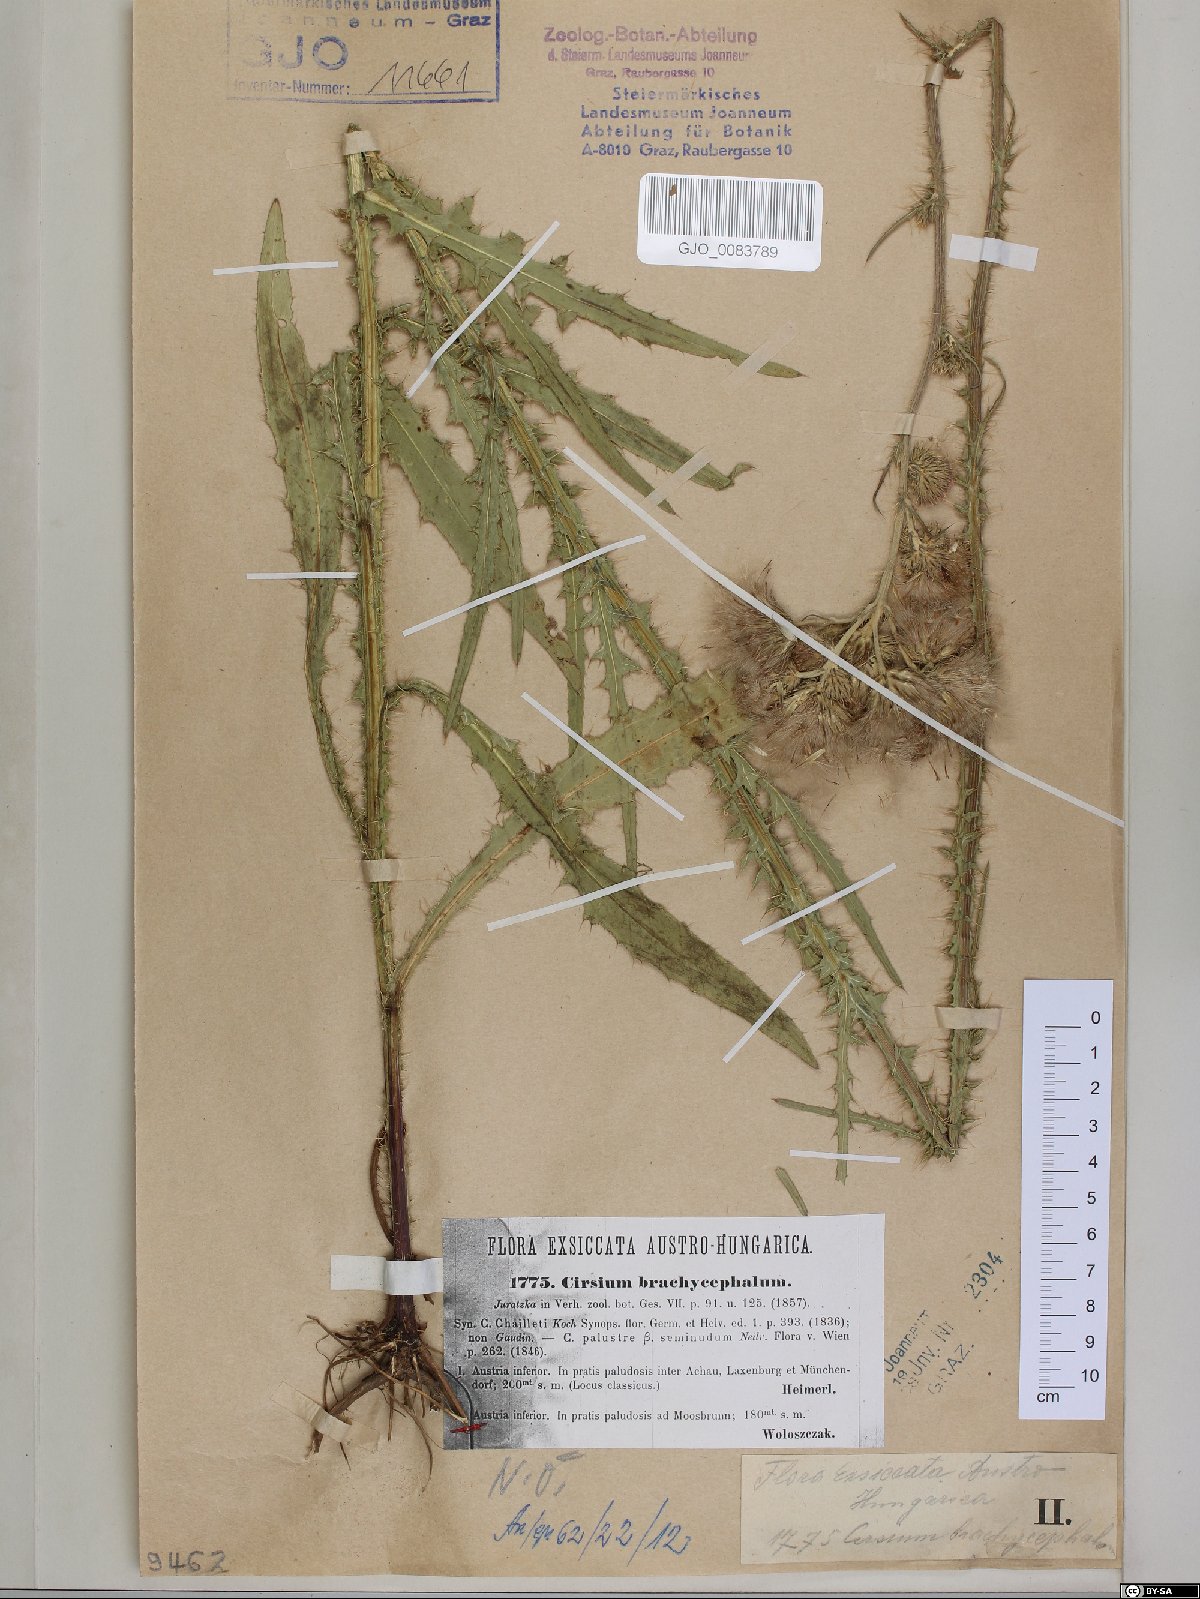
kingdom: Plantae
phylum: Tracheophyta
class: Magnoliopsida
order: Asterales
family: Asteraceae
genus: Cirsium
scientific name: Cirsium brachycephalum
